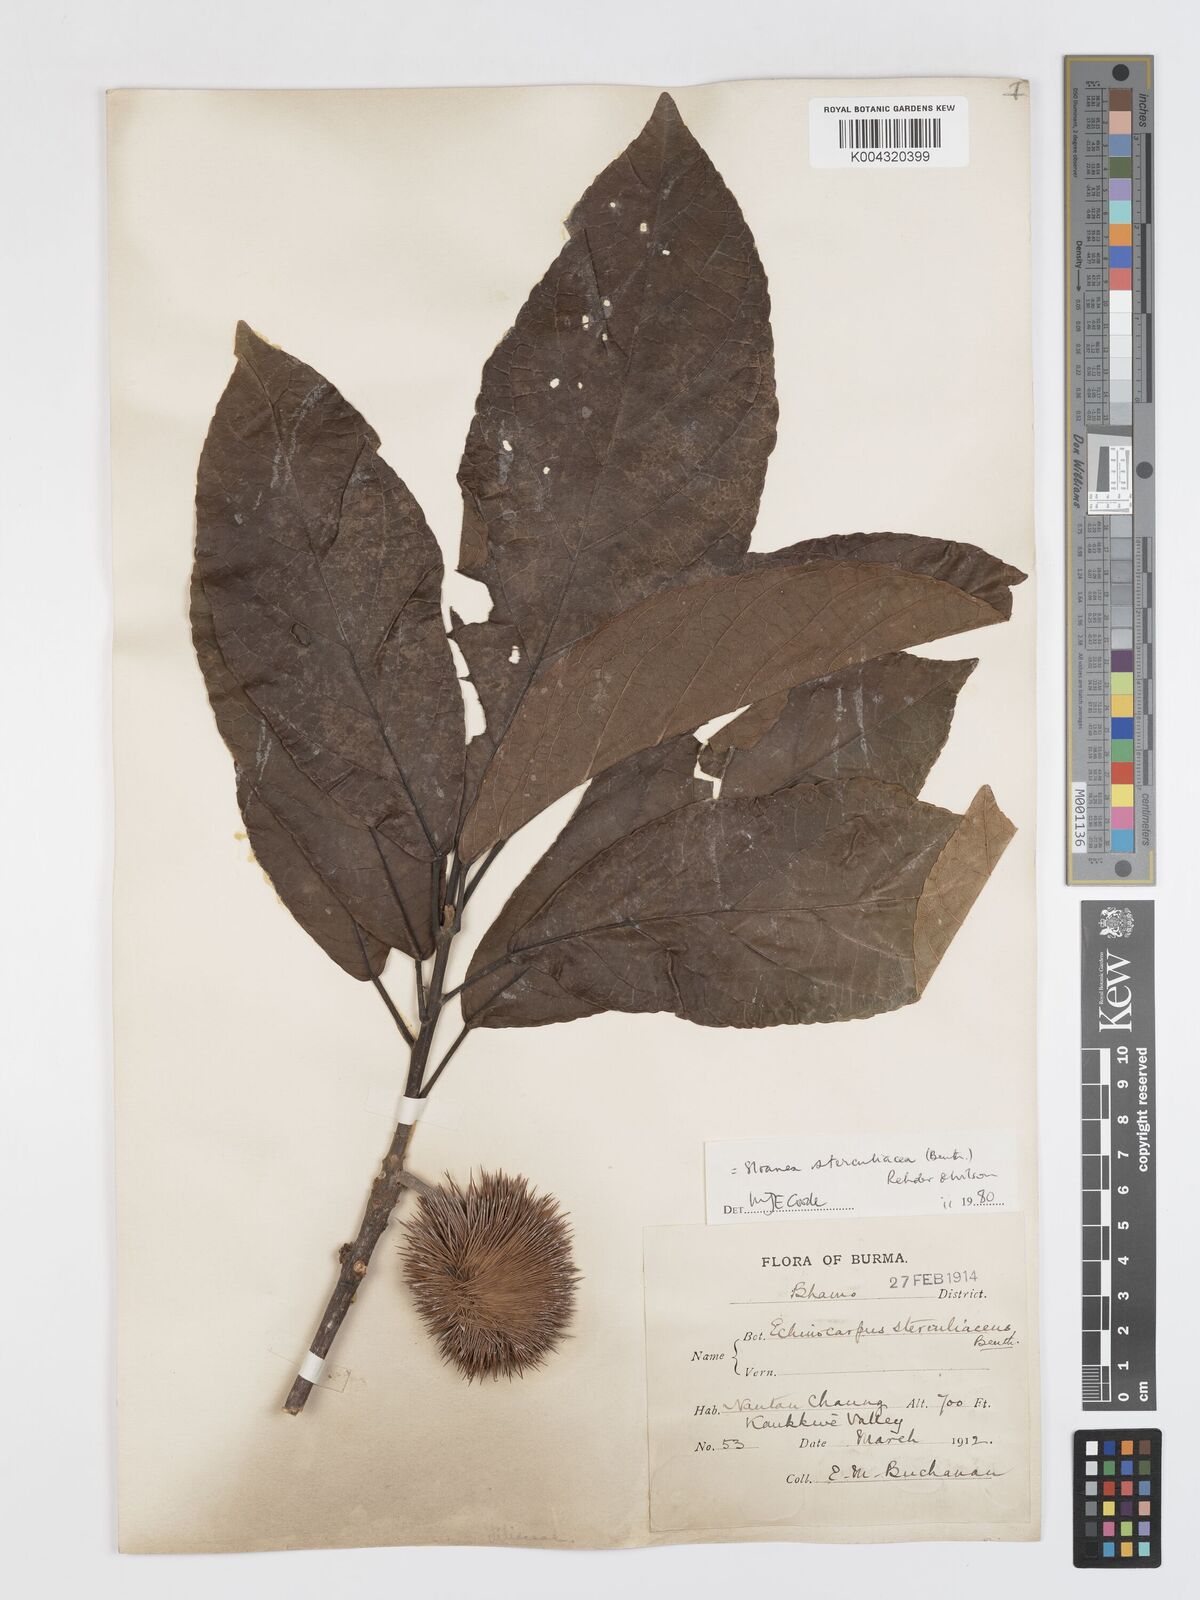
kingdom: Plantae
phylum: Tracheophyta
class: Magnoliopsida
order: Oxalidales
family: Elaeocarpaceae
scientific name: Elaeocarpaceae
